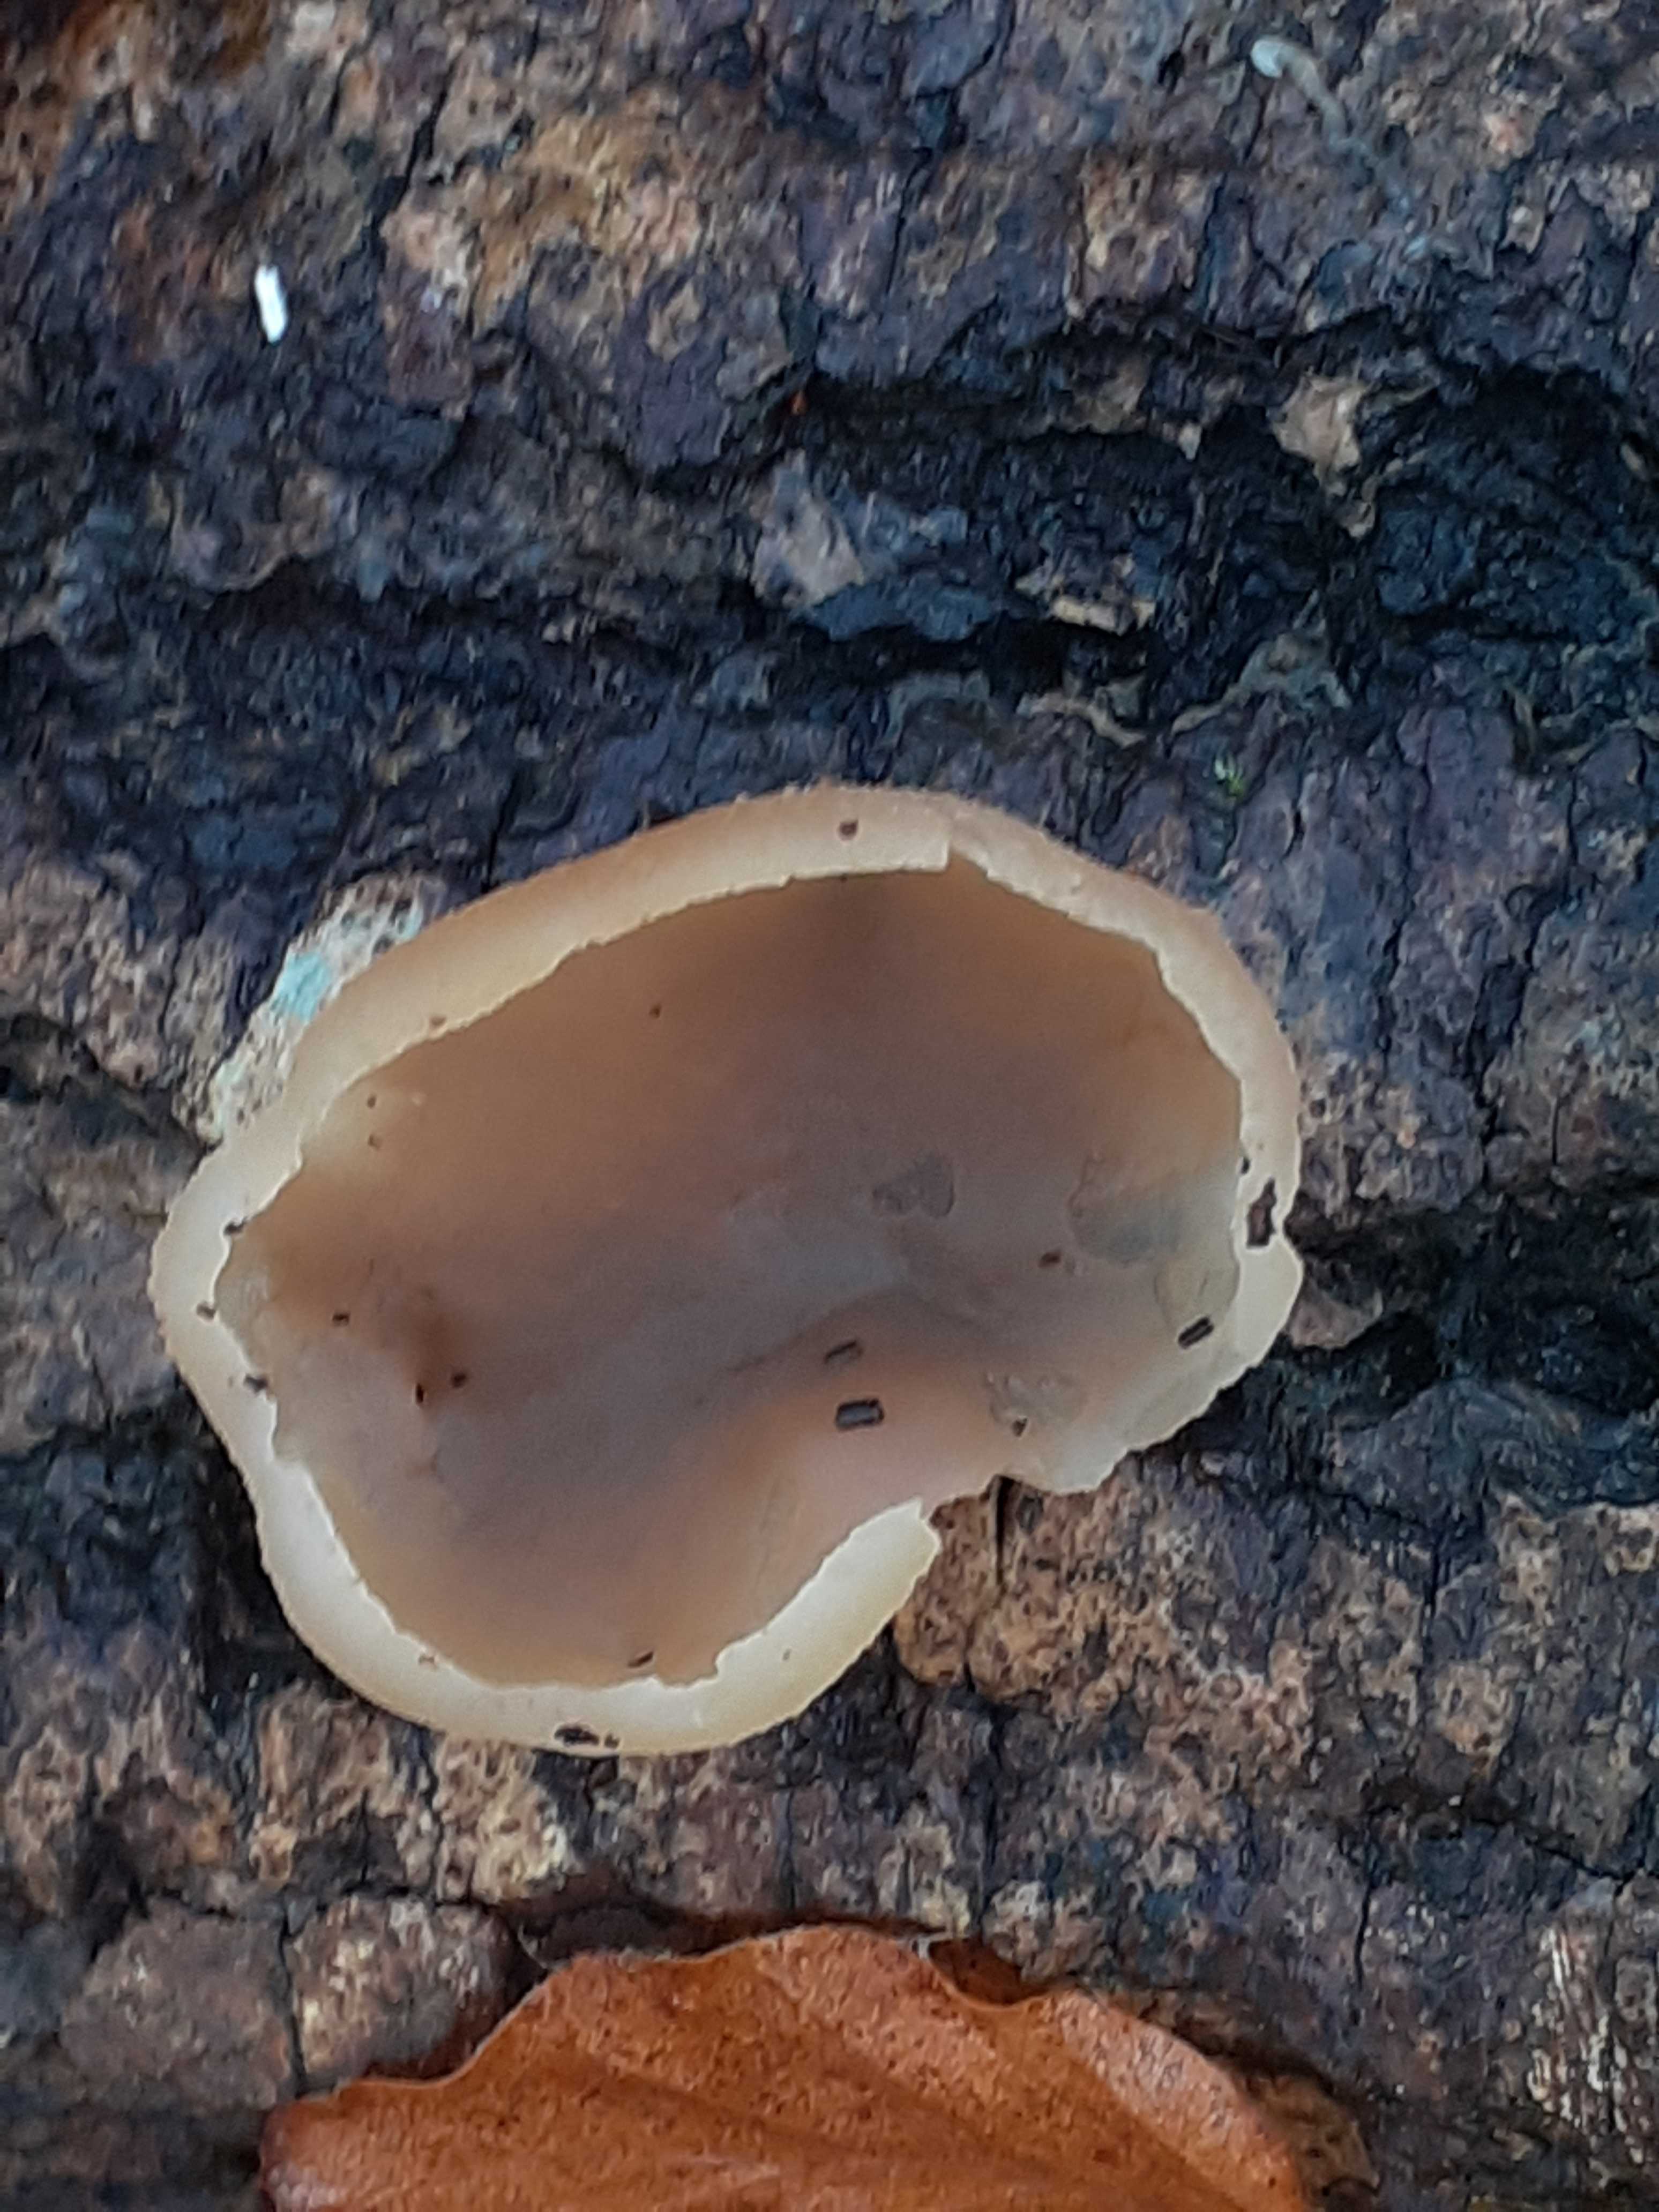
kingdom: Fungi
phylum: Ascomycota
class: Pezizomycetes
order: Pezizales
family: Pezizaceae
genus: Peziza
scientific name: Peziza varia
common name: Ved-bægersvamp
